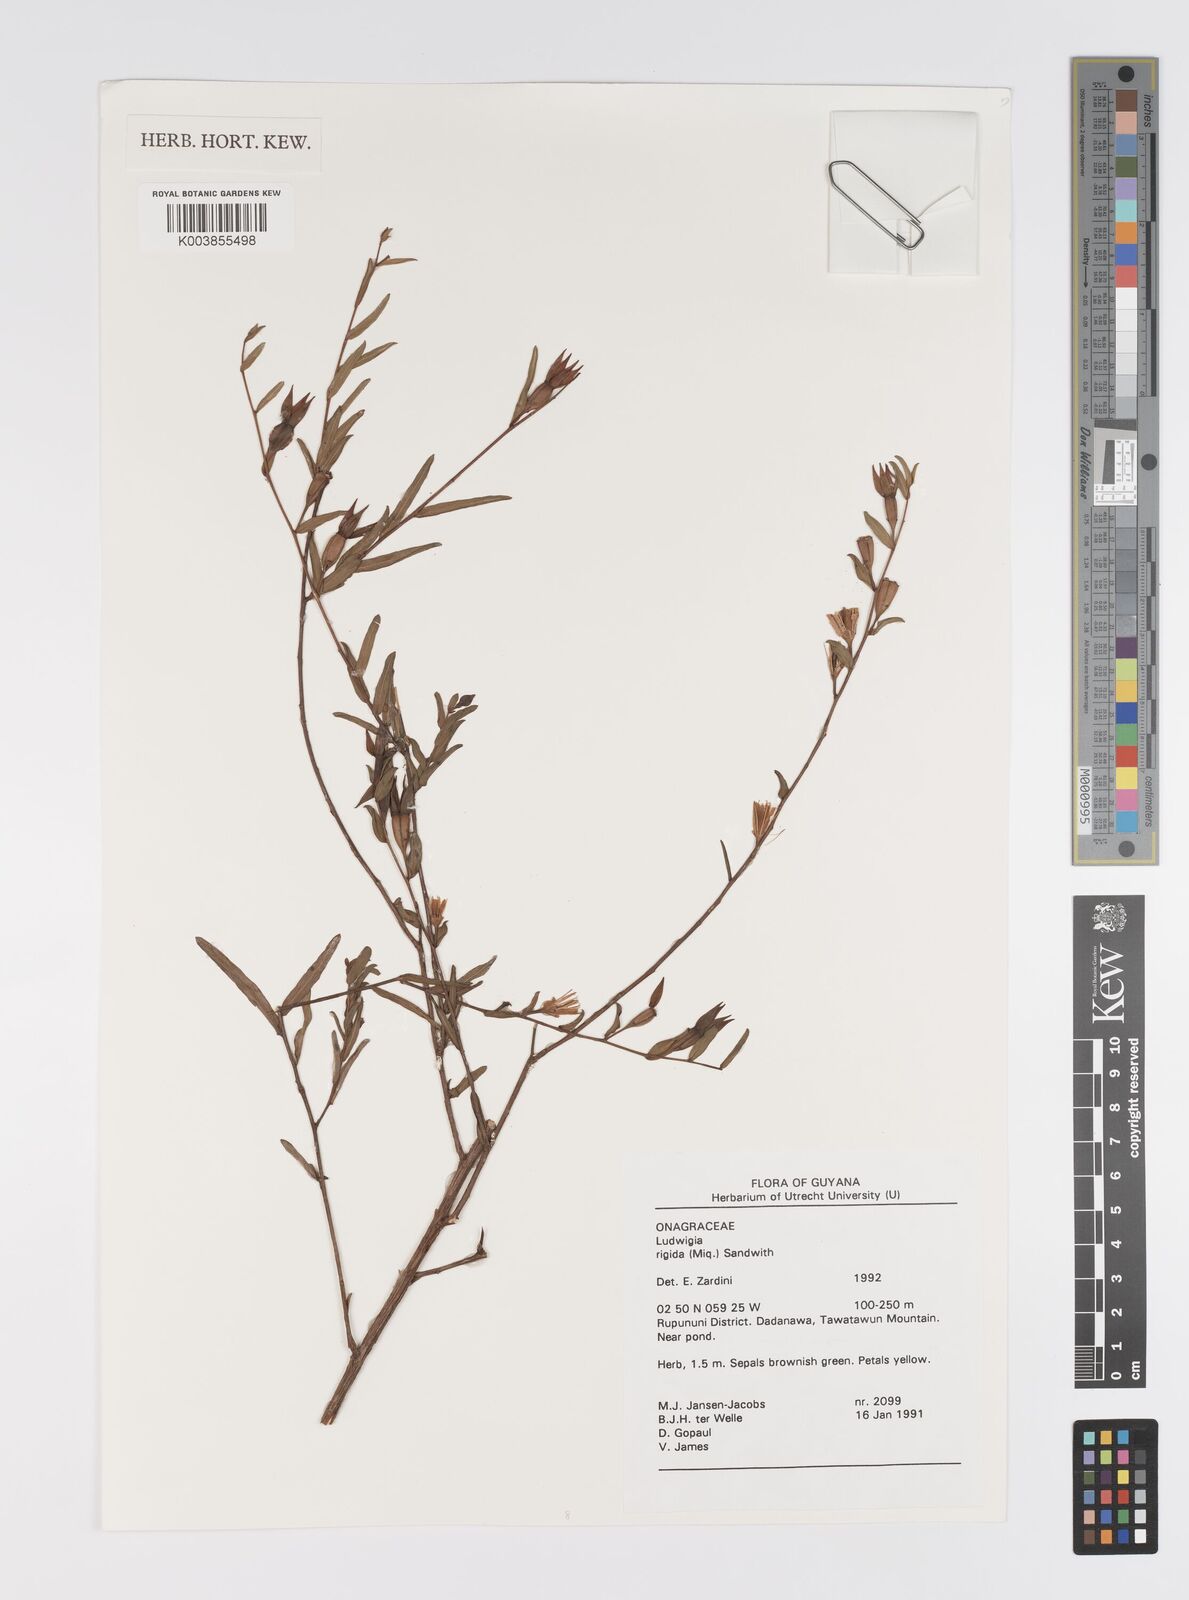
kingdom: Plantae
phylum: Tracheophyta
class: Magnoliopsida
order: Myrtales
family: Onagraceae
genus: Ludwigia
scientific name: Ludwigia rigida
